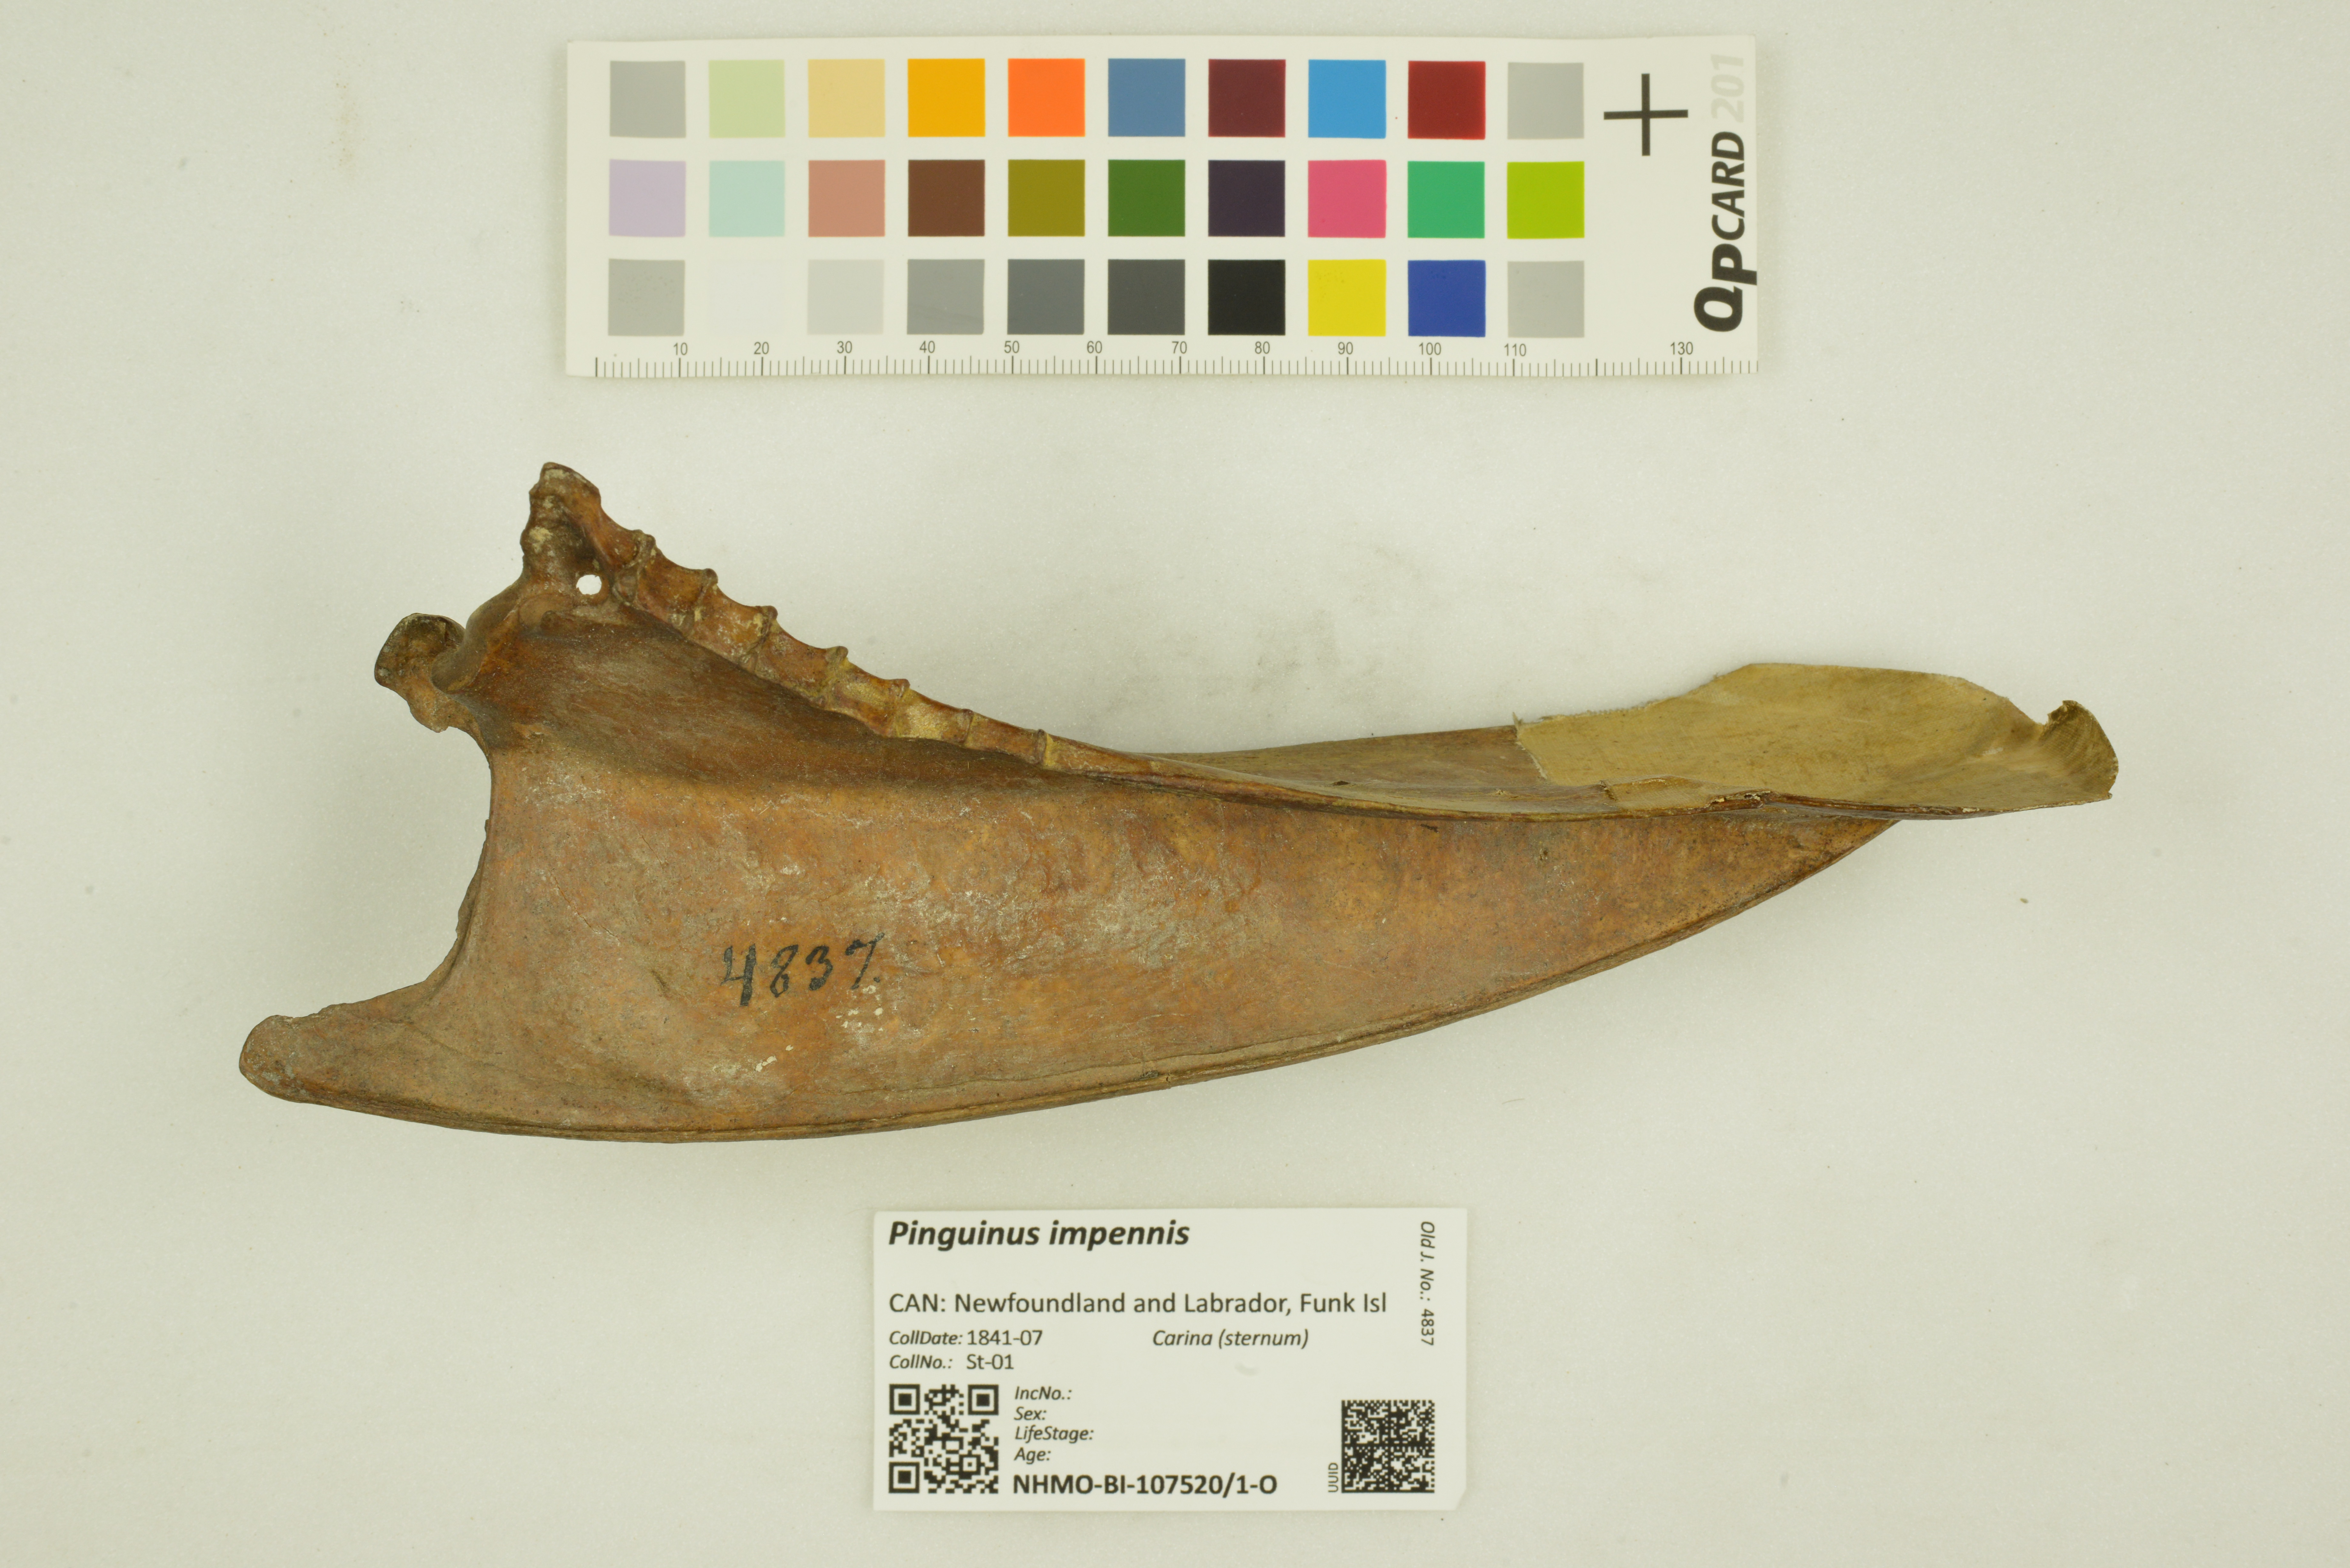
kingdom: Animalia
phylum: Chordata
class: Aves
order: Charadriiformes
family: Alcidae
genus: Pinguinus
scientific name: Pinguinus impennis
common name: Great auk
